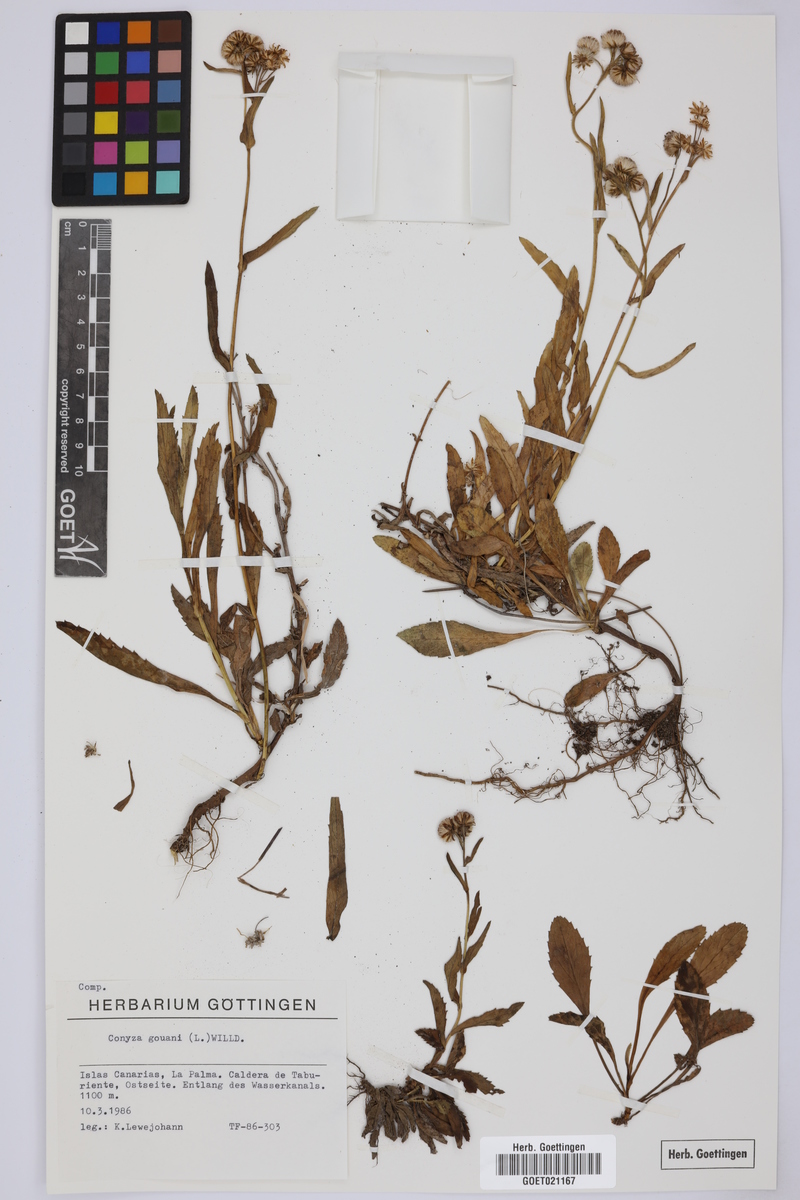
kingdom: Plantae
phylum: Tracheophyta
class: Magnoliopsida
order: Asterales
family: Asteraceae
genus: Eschenbachia
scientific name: Eschenbachia gouanii
